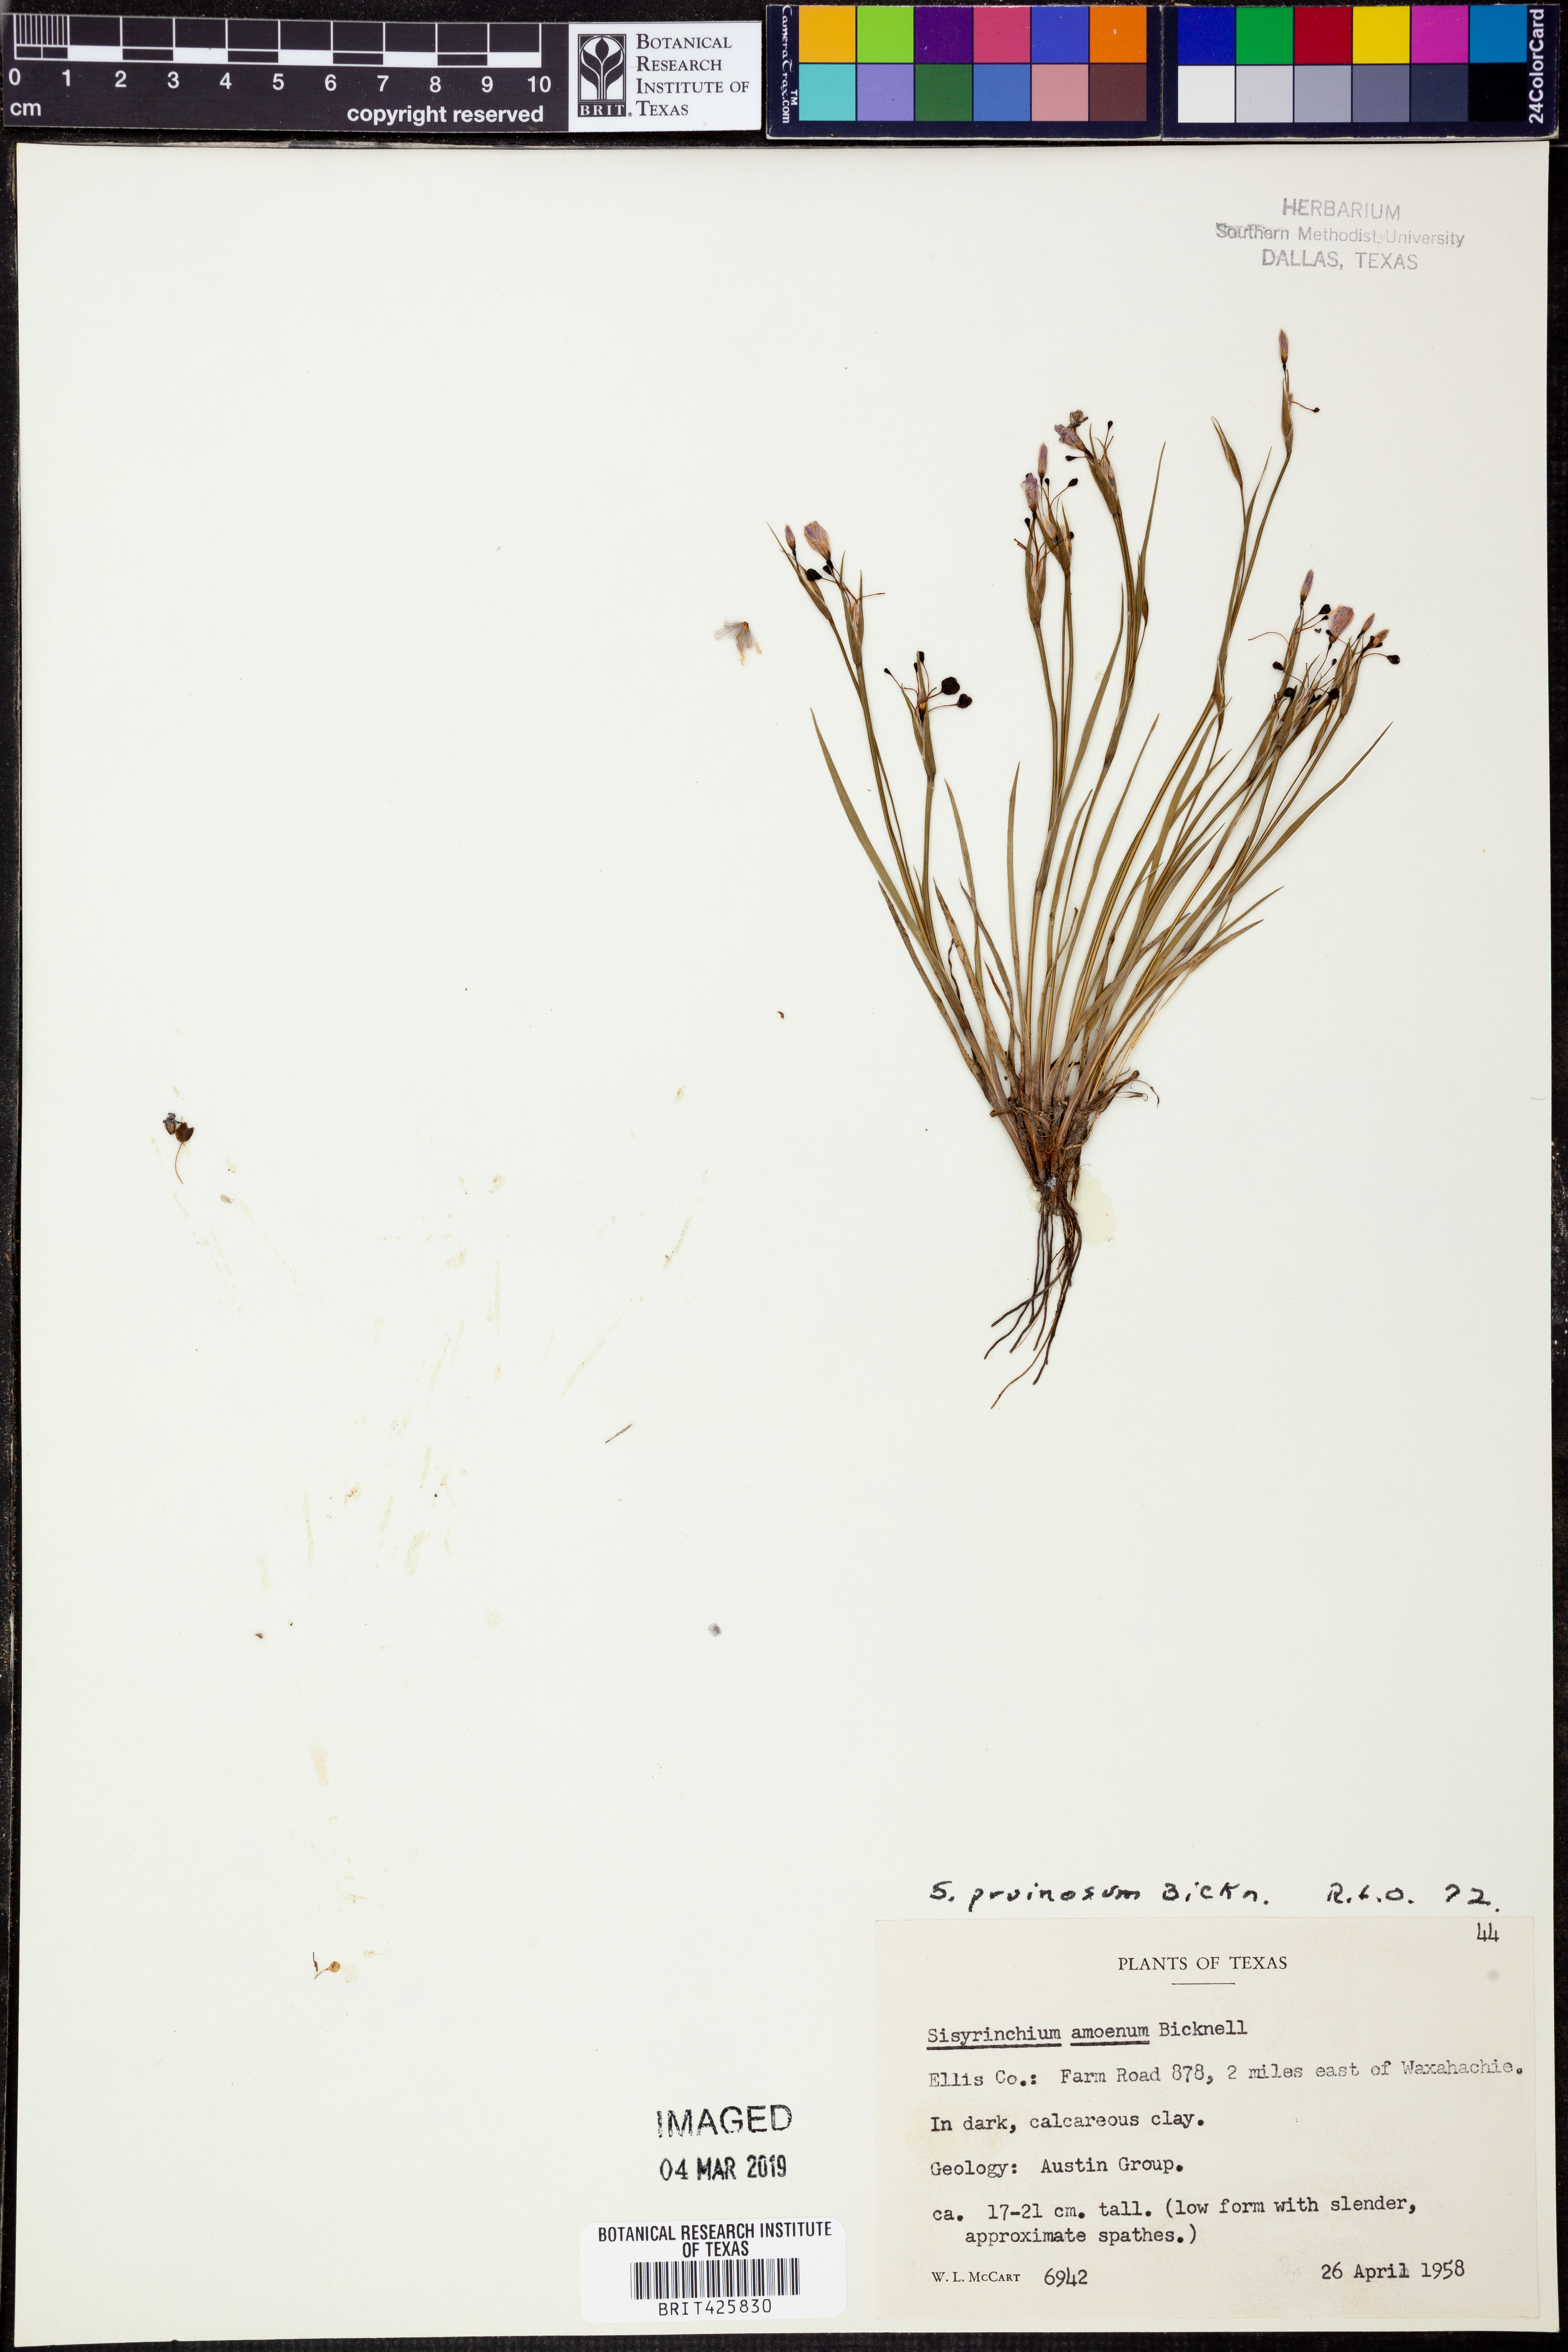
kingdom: Plantae
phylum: Tracheophyta
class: Liliopsida
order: Asparagales
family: Iridaceae
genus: Sisyrinchium
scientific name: Sisyrinchium pruinosum
